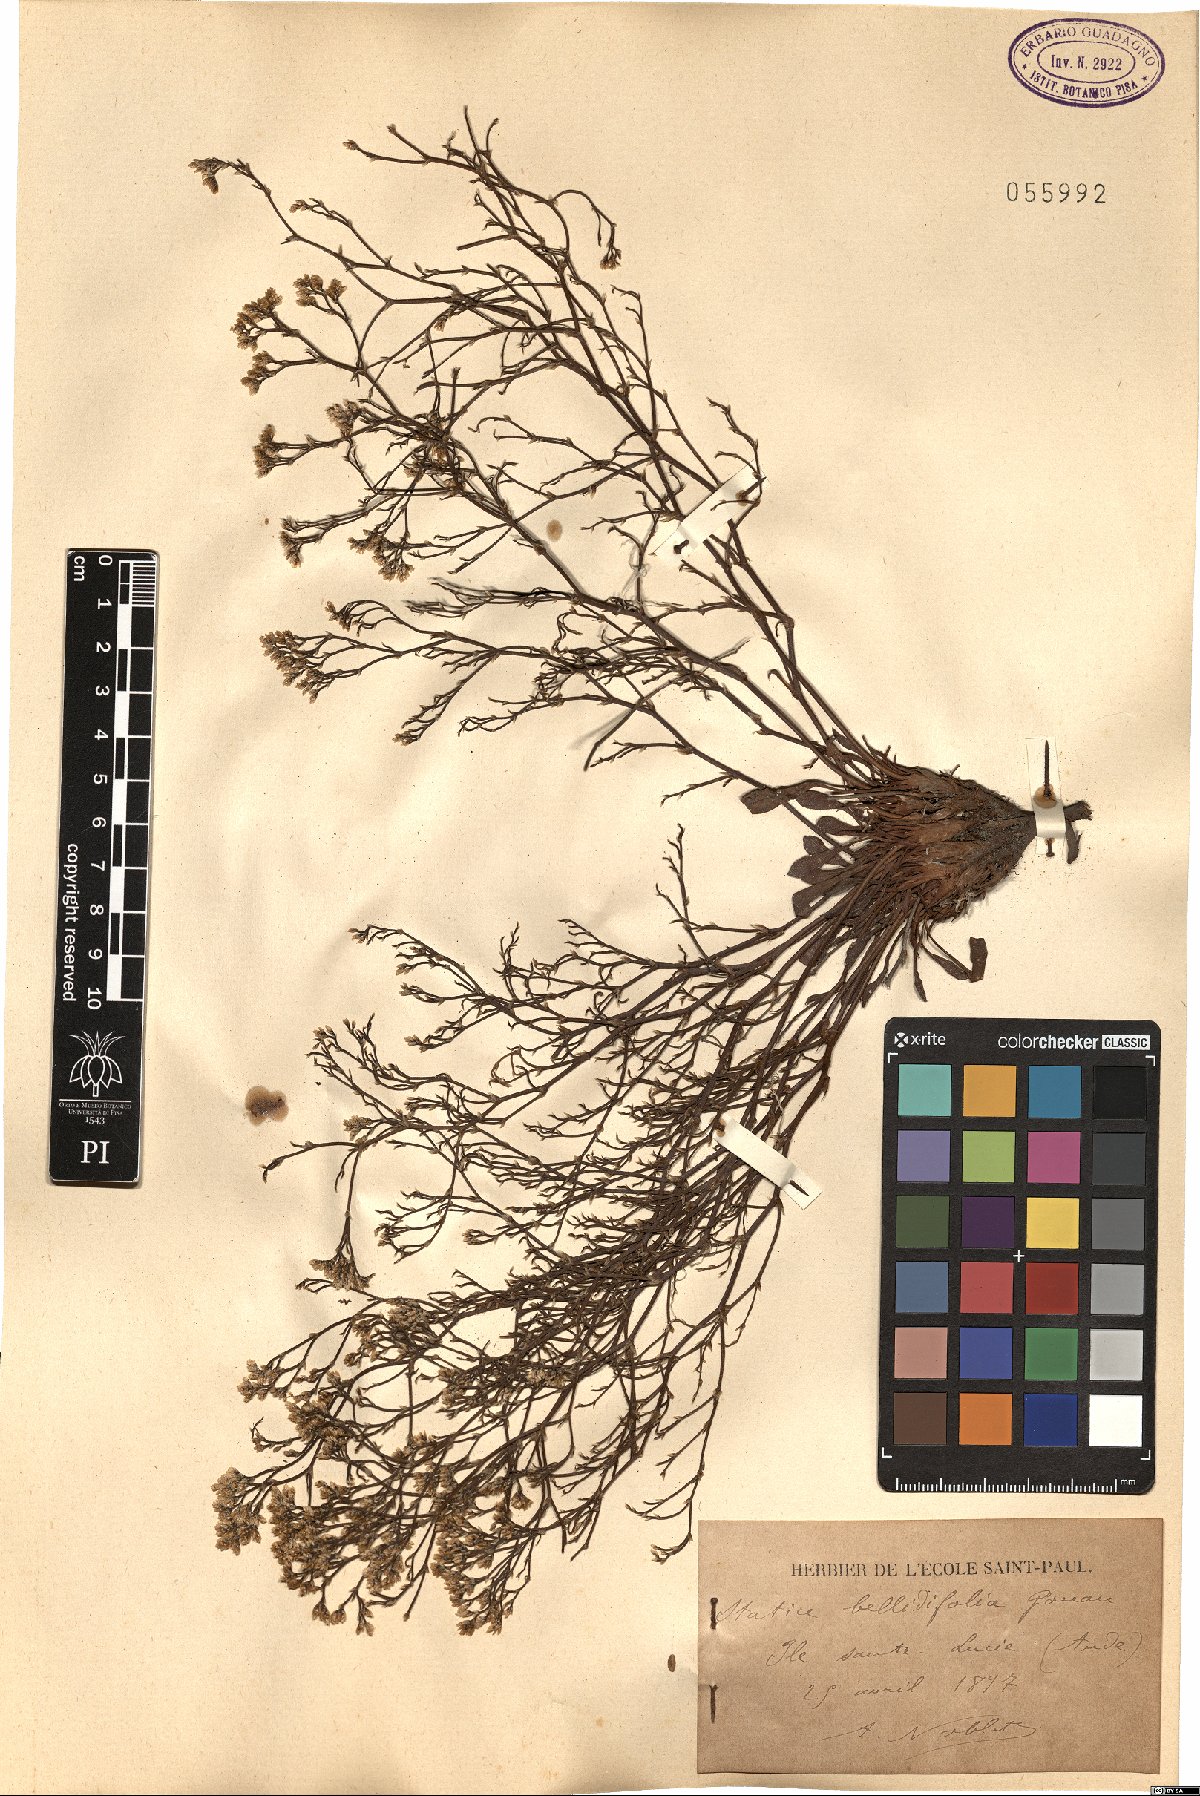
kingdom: Plantae
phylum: Tracheophyta
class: Magnoliopsida
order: Caryophyllales
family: Plumbaginaceae
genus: Limonium
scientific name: Limonium bellidifolium
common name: Matted sea-lavender
